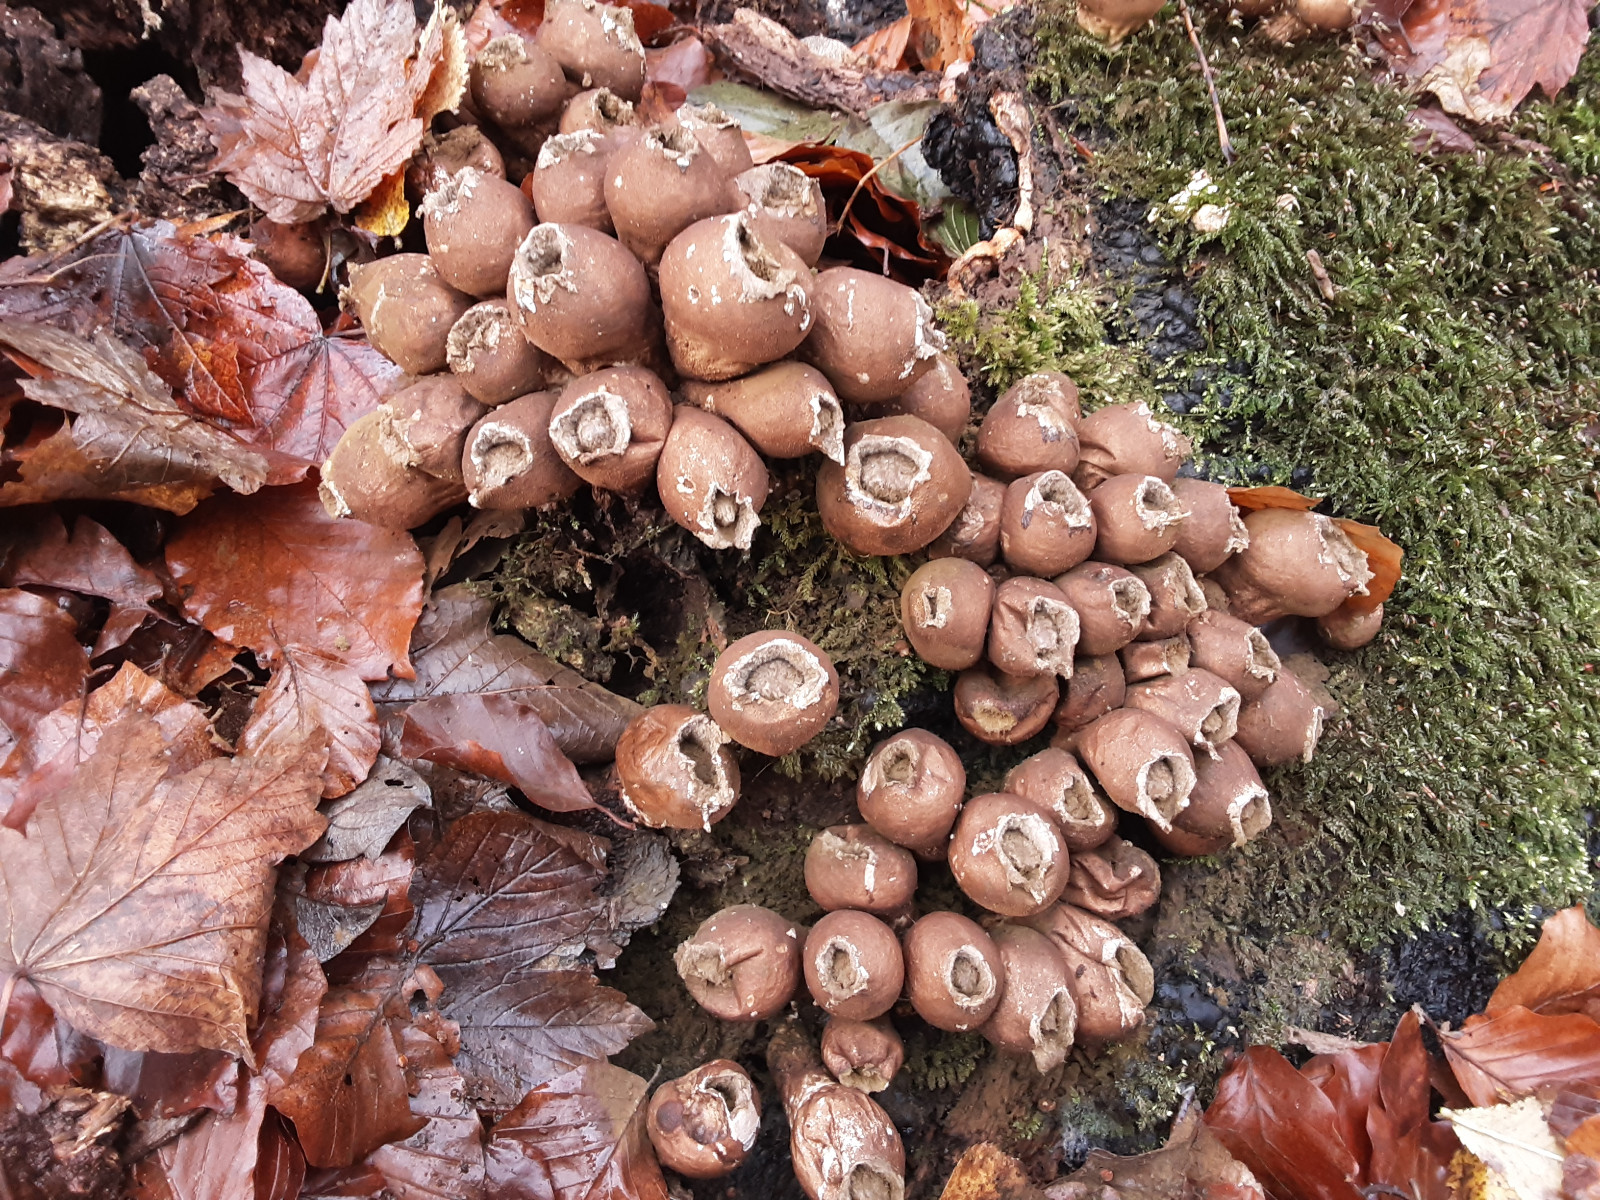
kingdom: Fungi
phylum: Basidiomycota
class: Agaricomycetes
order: Agaricales
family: Lycoperdaceae
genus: Apioperdon
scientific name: Apioperdon pyriforme
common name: pære-støvbold
